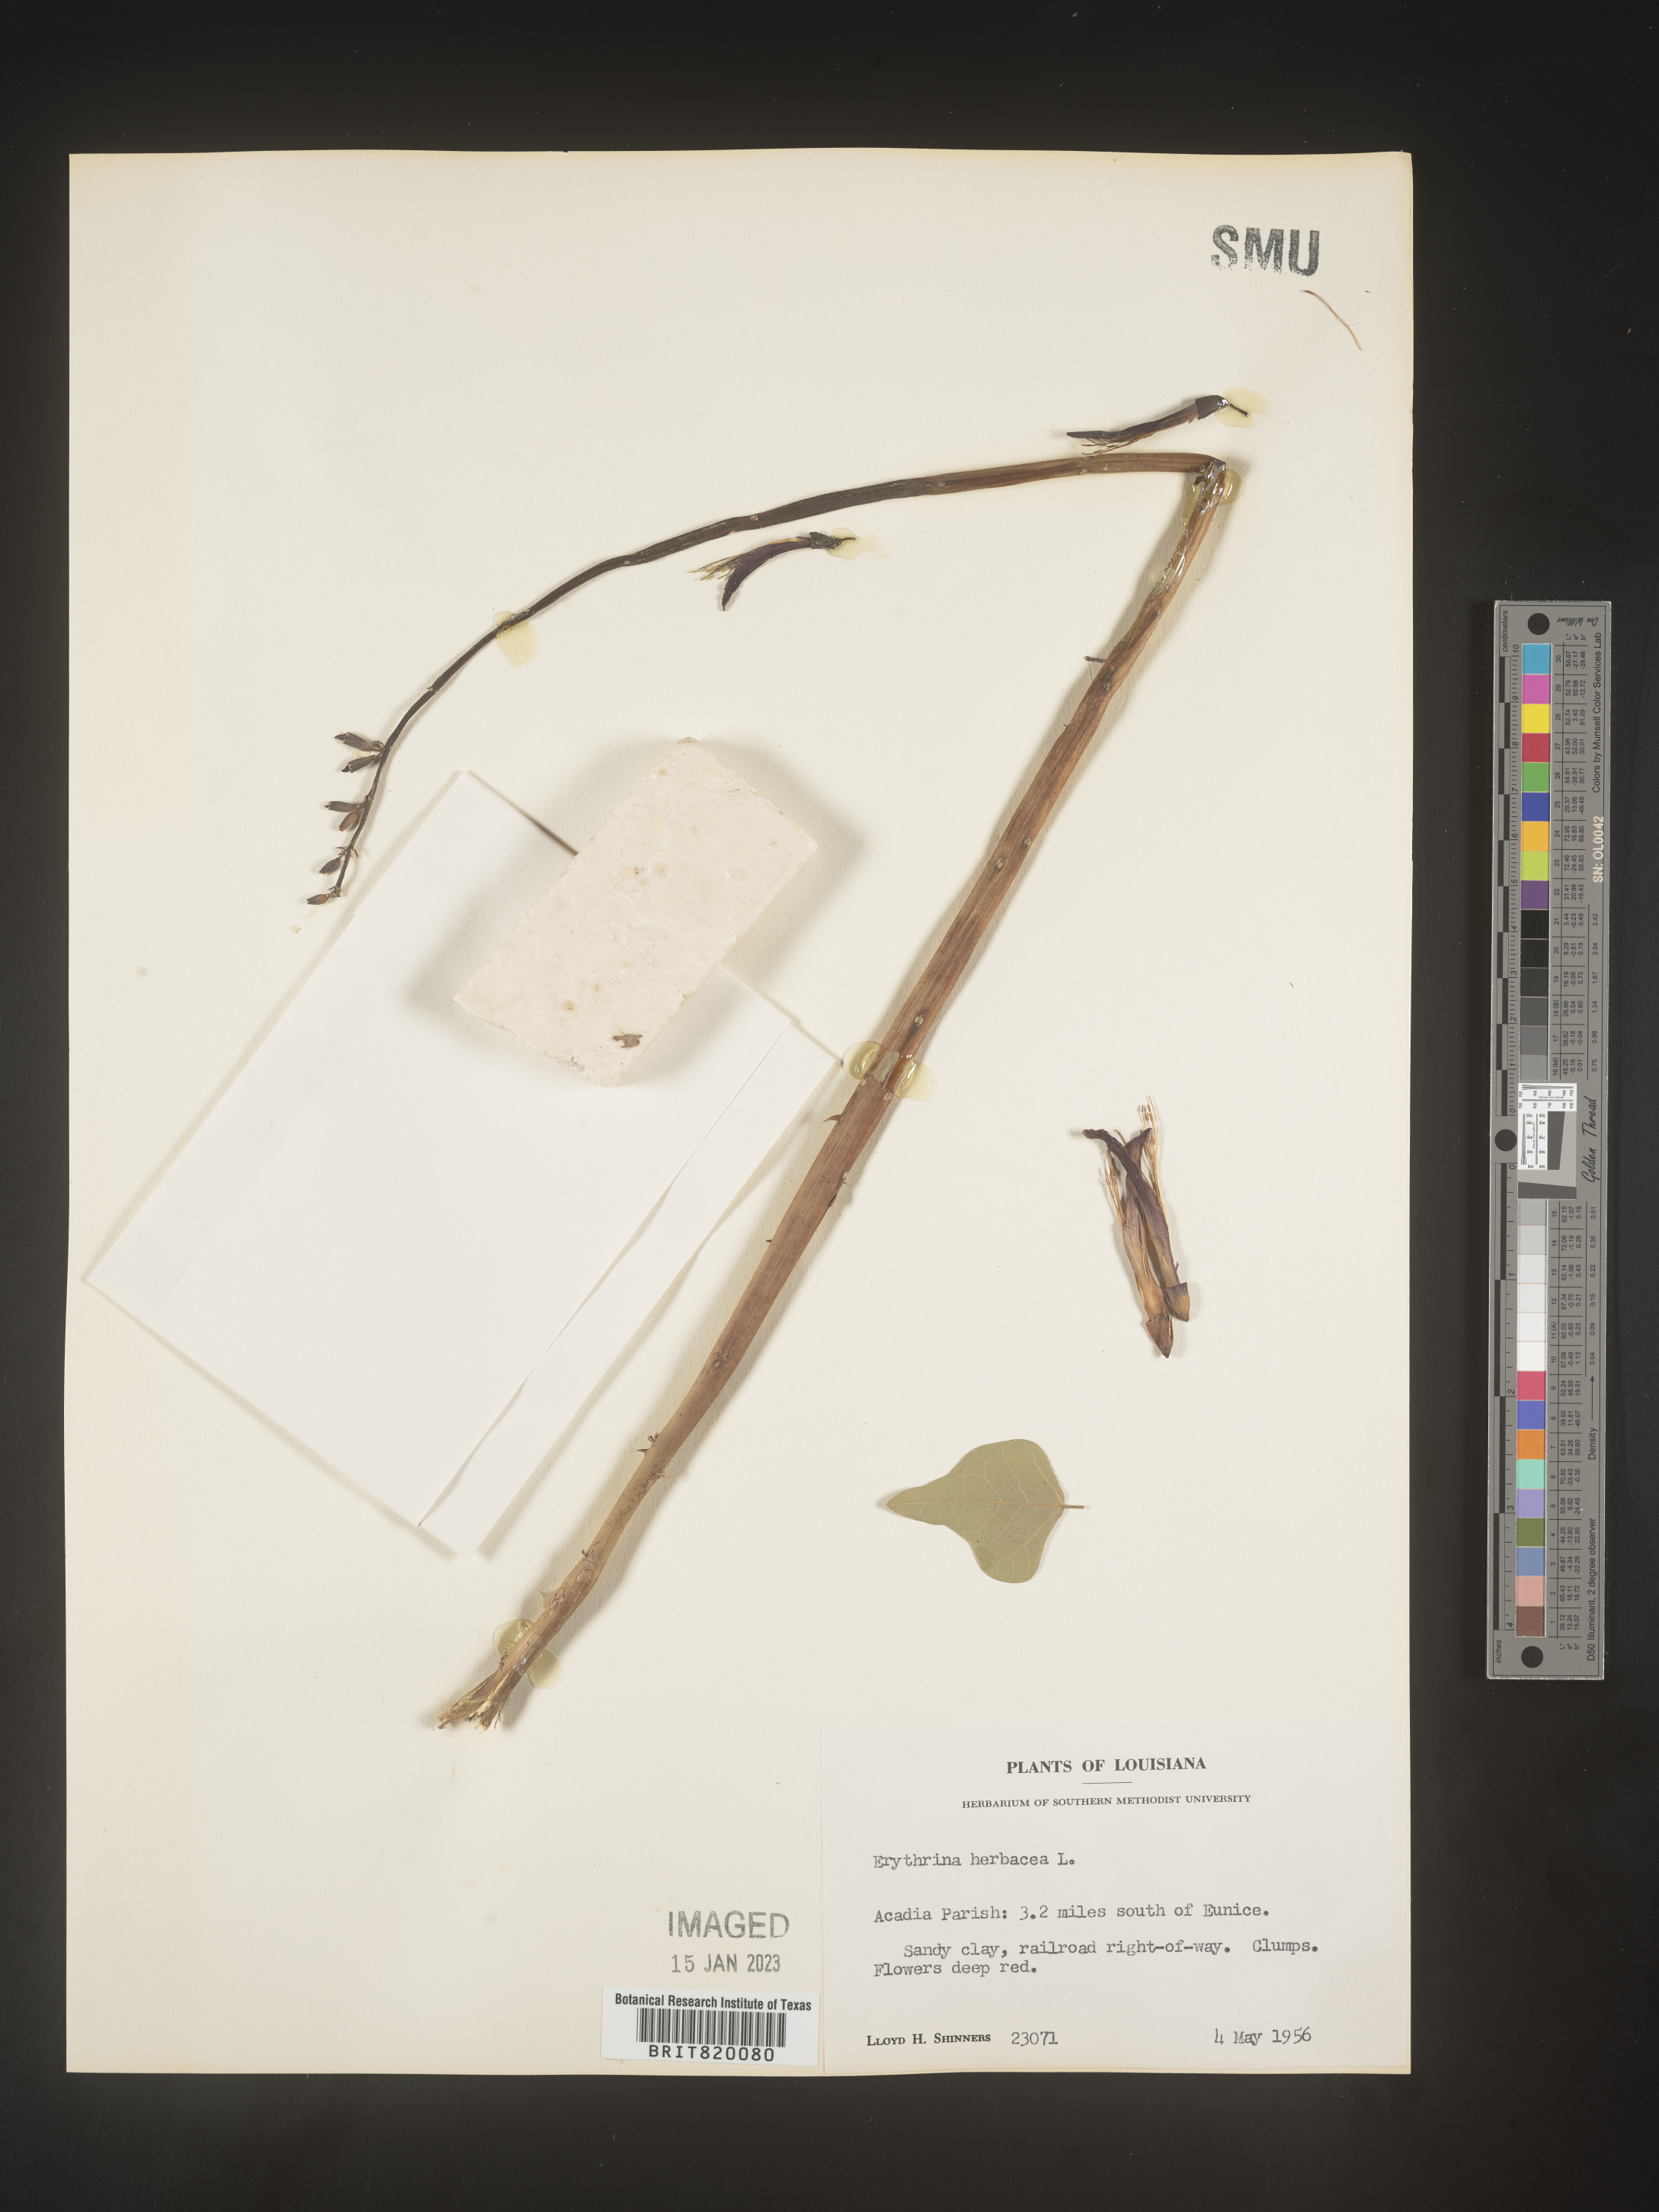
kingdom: Plantae
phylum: Tracheophyta
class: Magnoliopsida
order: Fabales
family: Fabaceae
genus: Erythrina
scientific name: Erythrina herbacea
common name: Coral-bean
